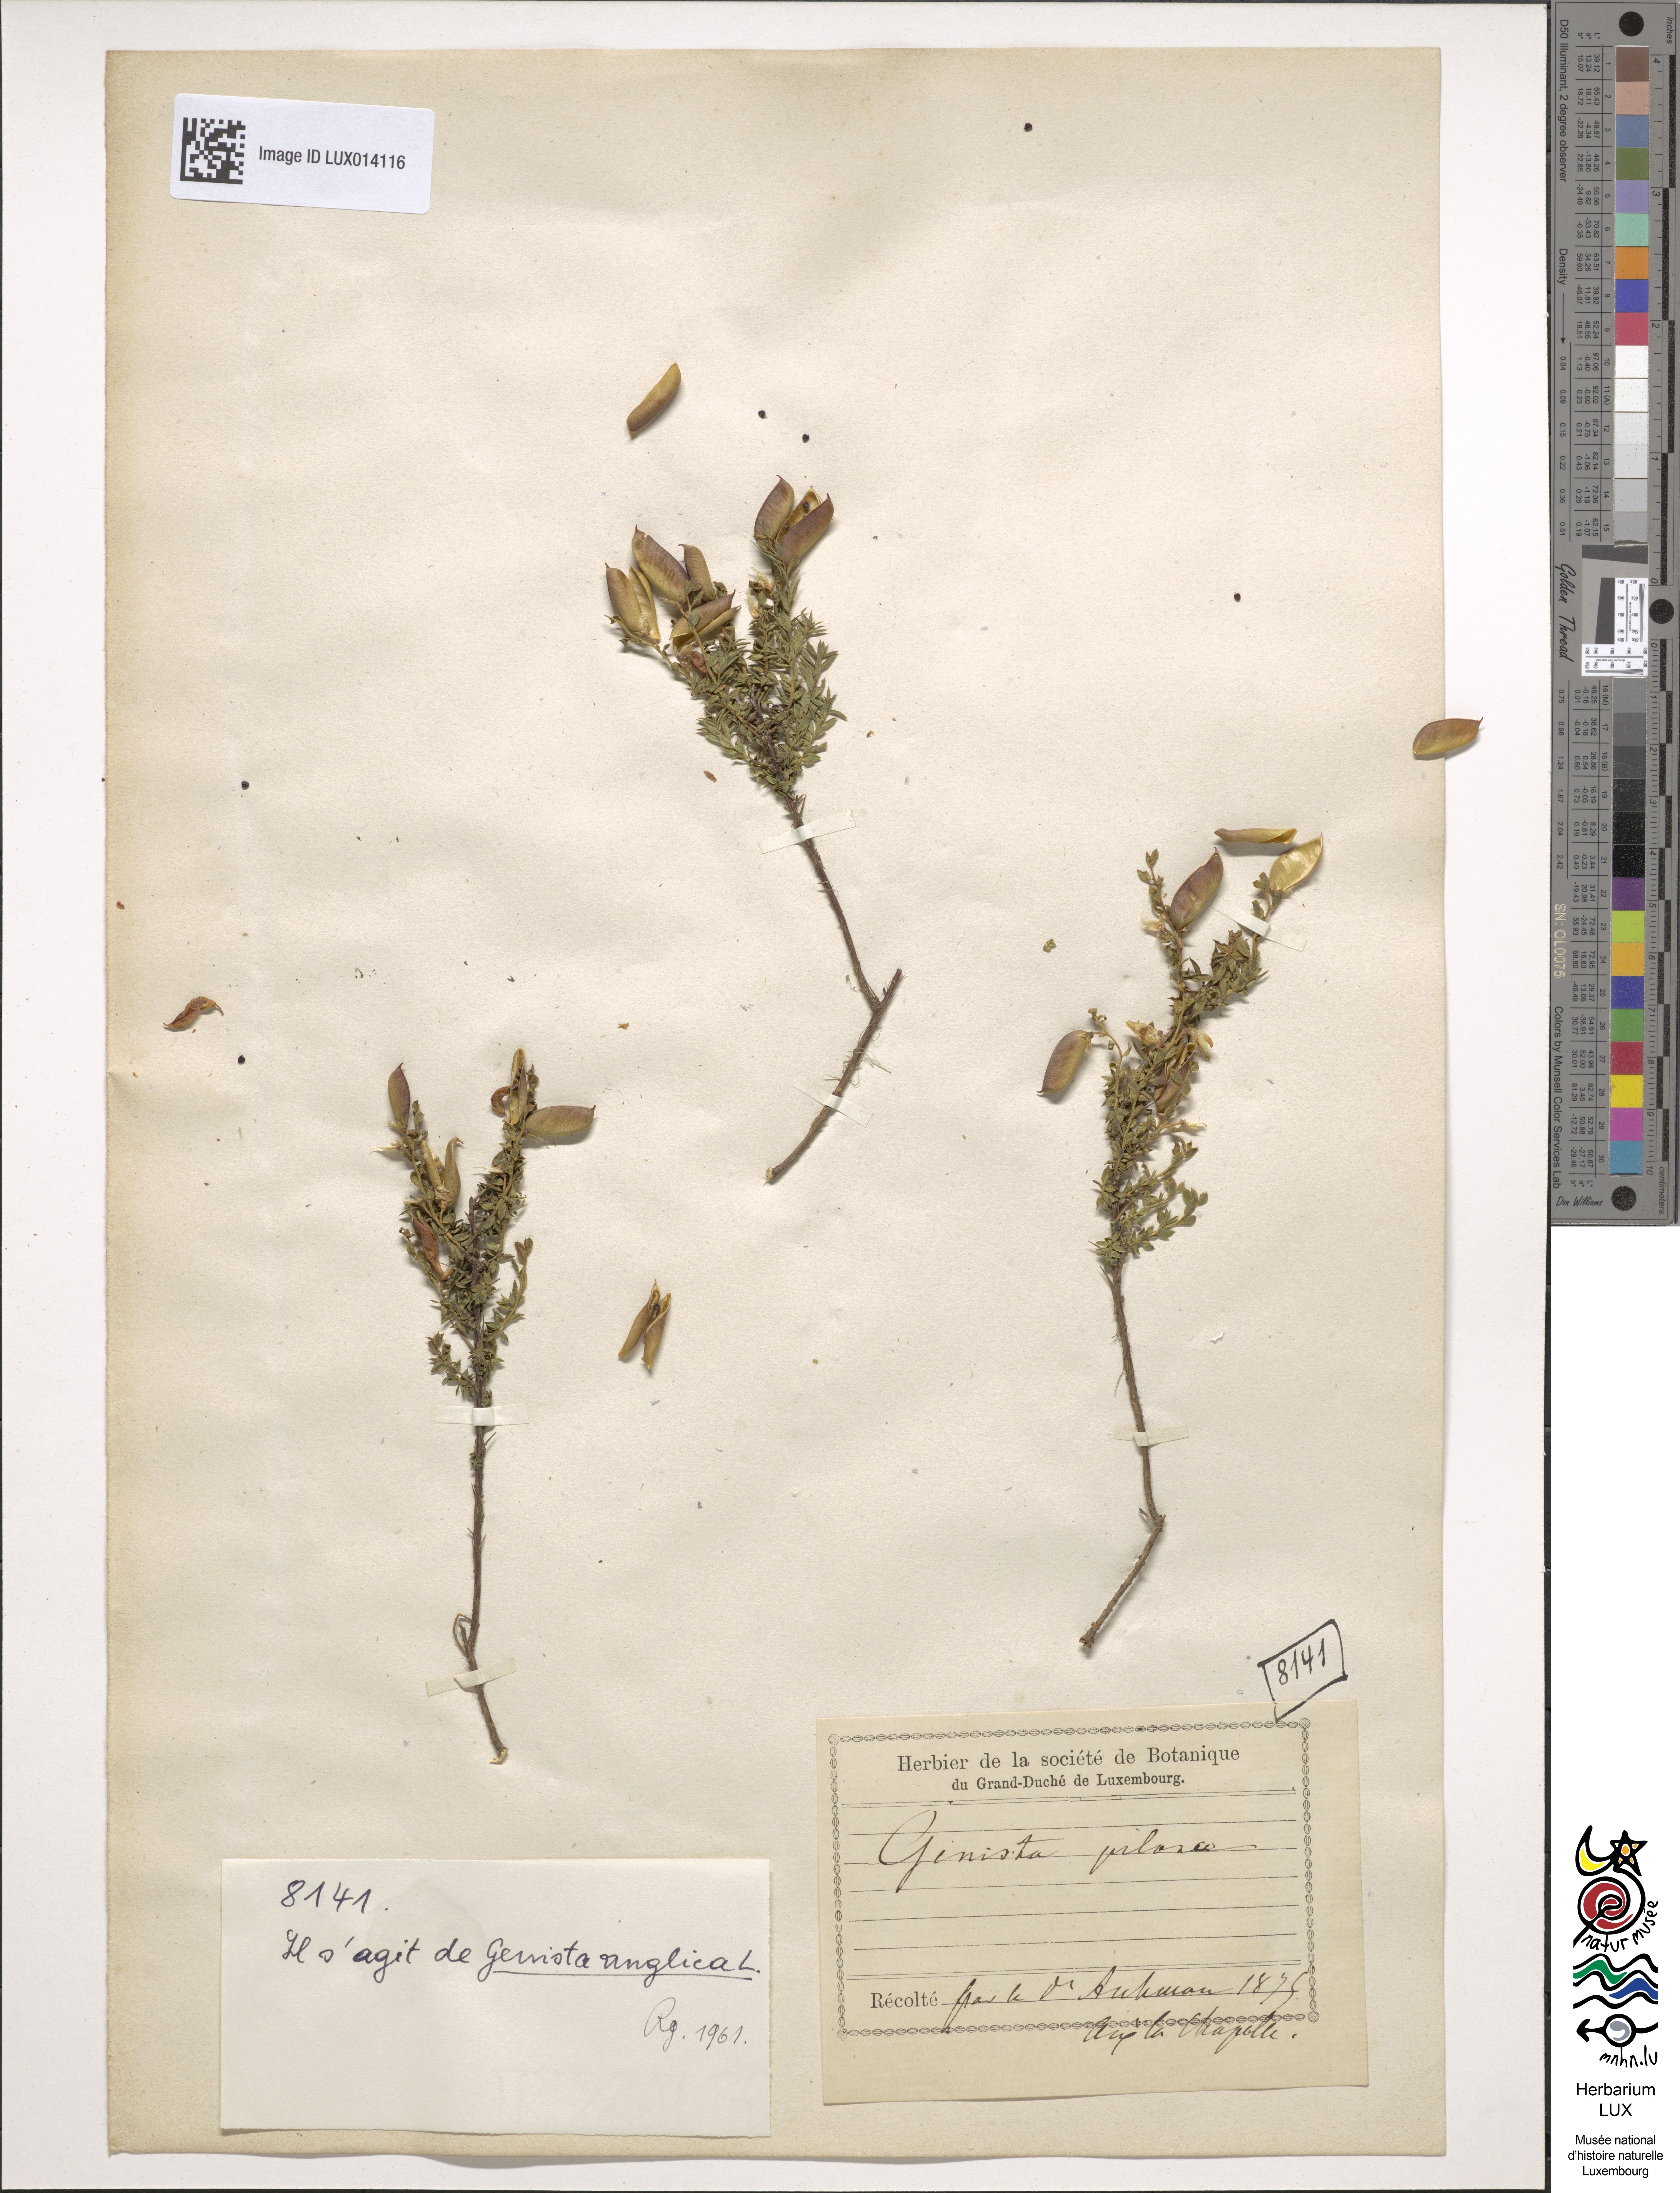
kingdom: Plantae
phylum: Tracheophyta
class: Magnoliopsida
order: Fabales
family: Fabaceae
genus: Genista
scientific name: Genista anglica
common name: Petty whin
